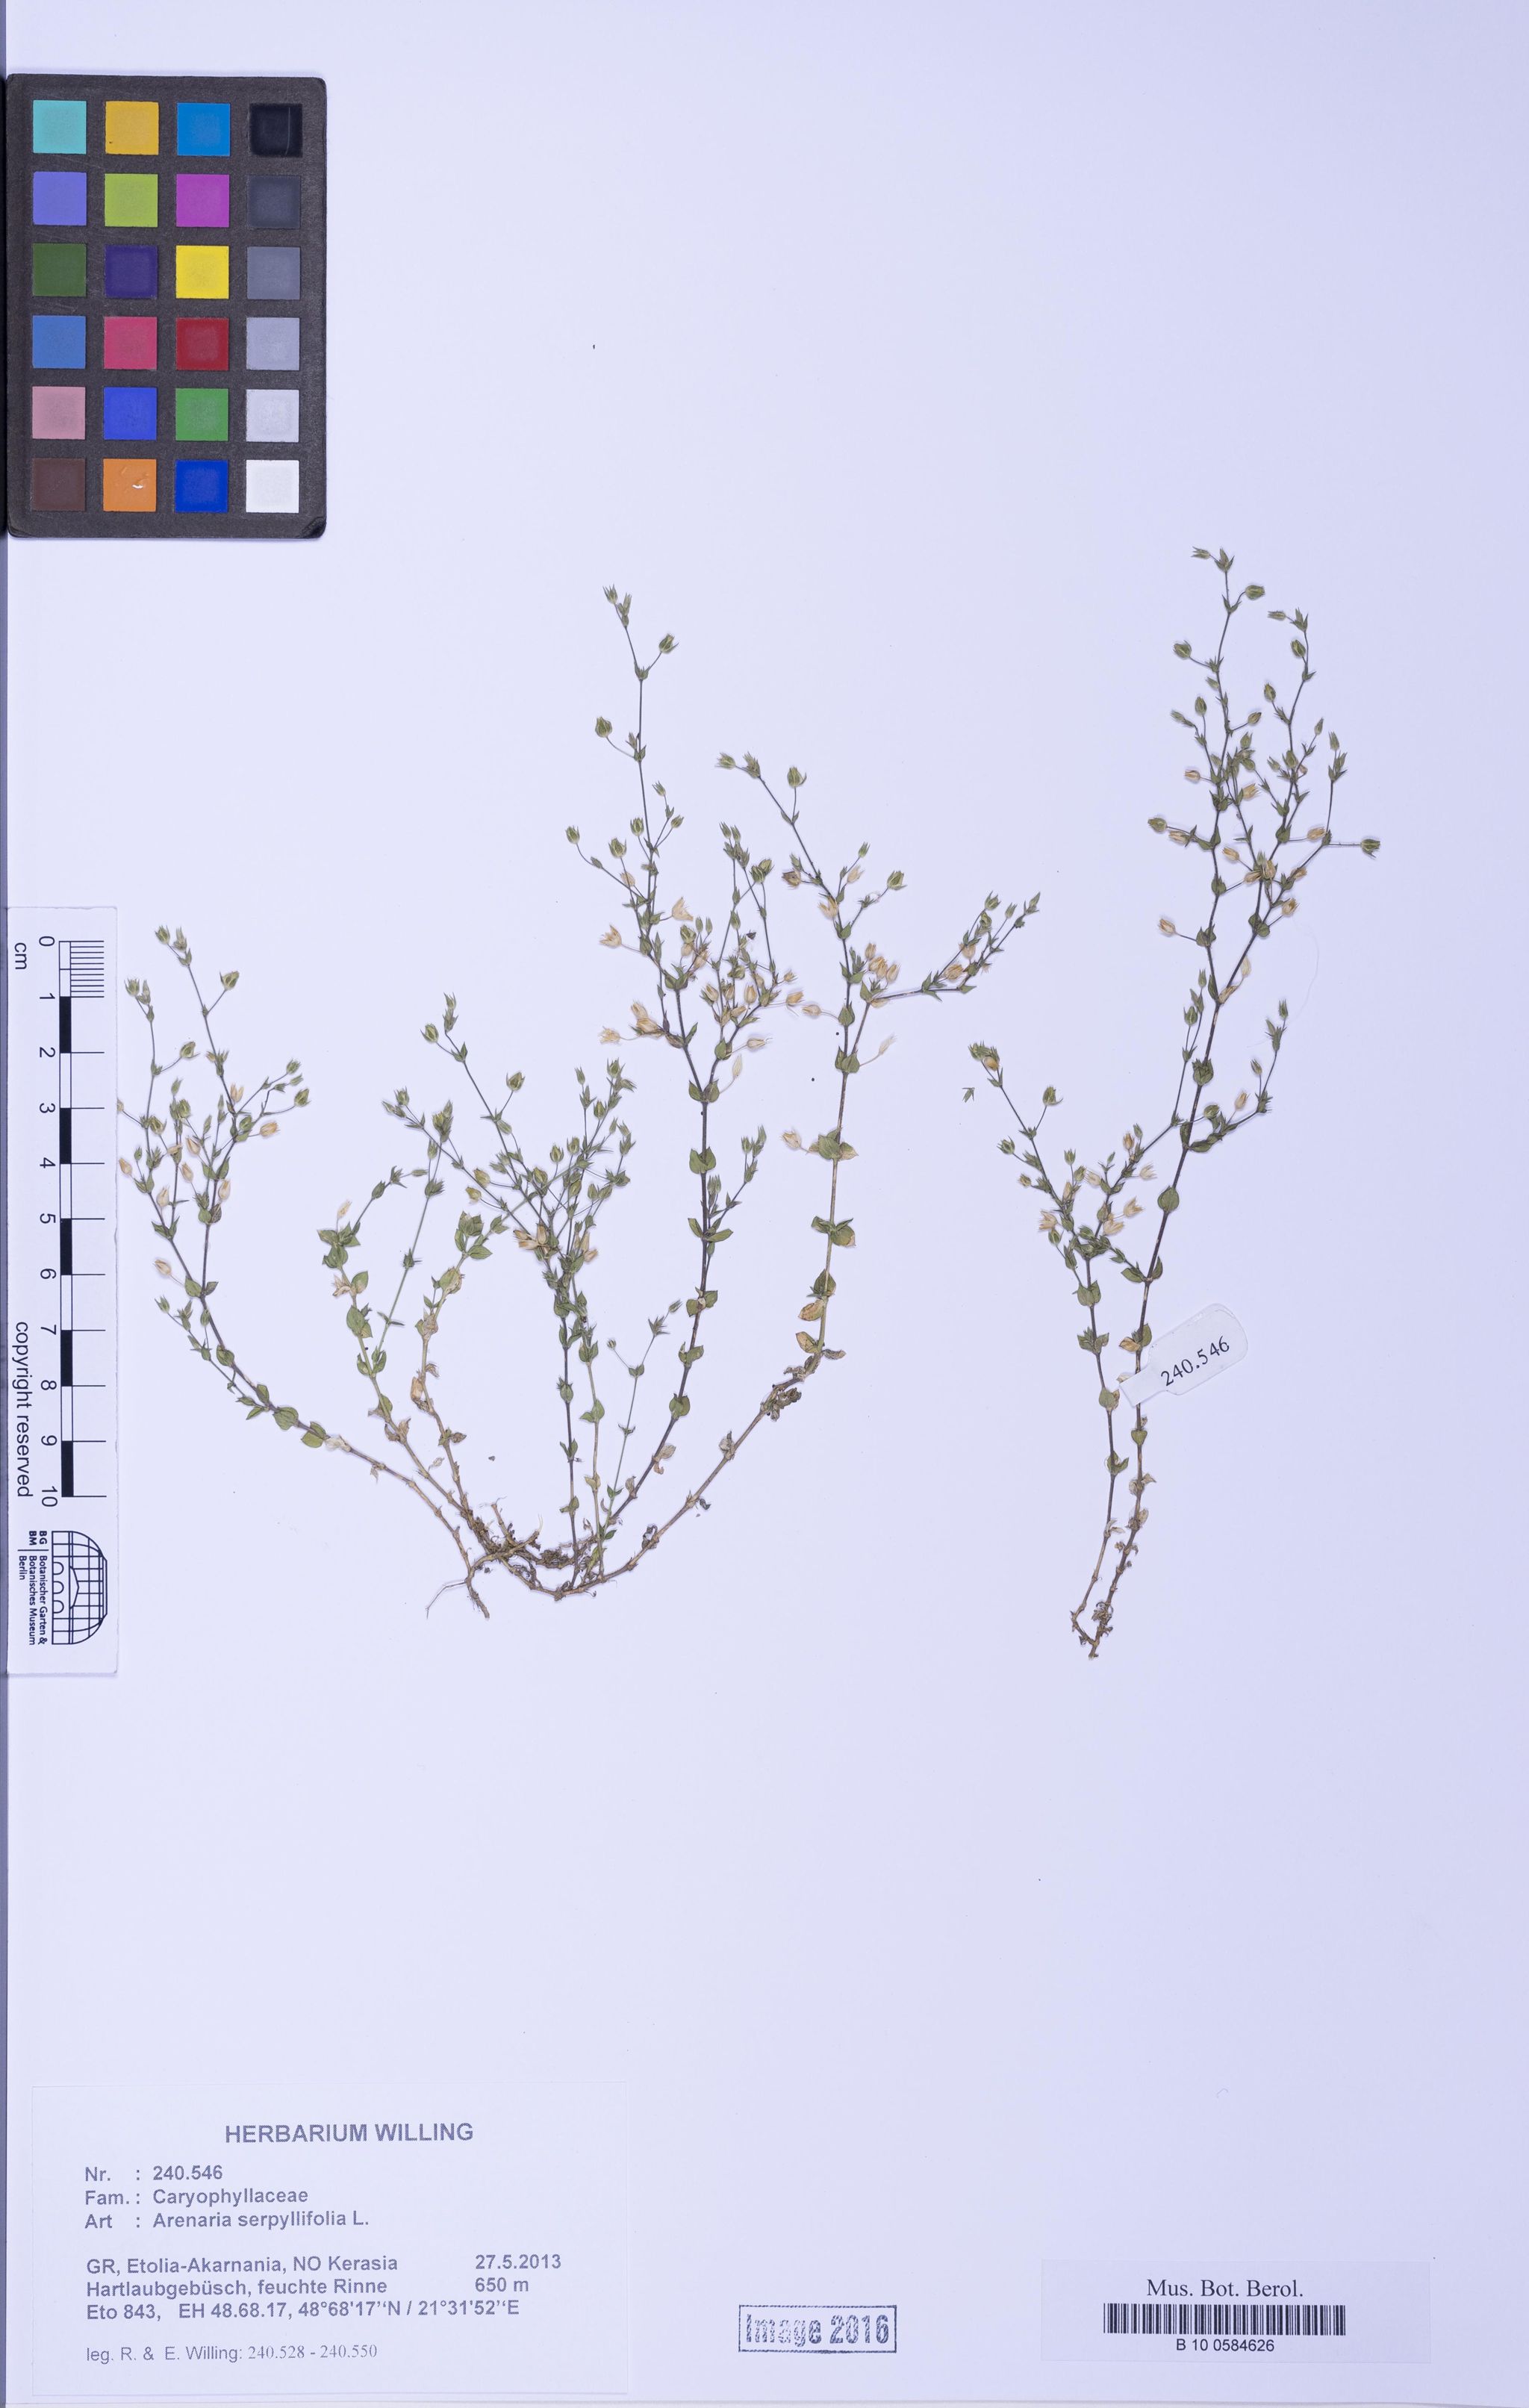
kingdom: Plantae
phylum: Tracheophyta
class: Magnoliopsida
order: Caryophyllales
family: Caryophyllaceae
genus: Arenaria
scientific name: Arenaria serpyllifolia
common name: Thyme-leaved sandwort
